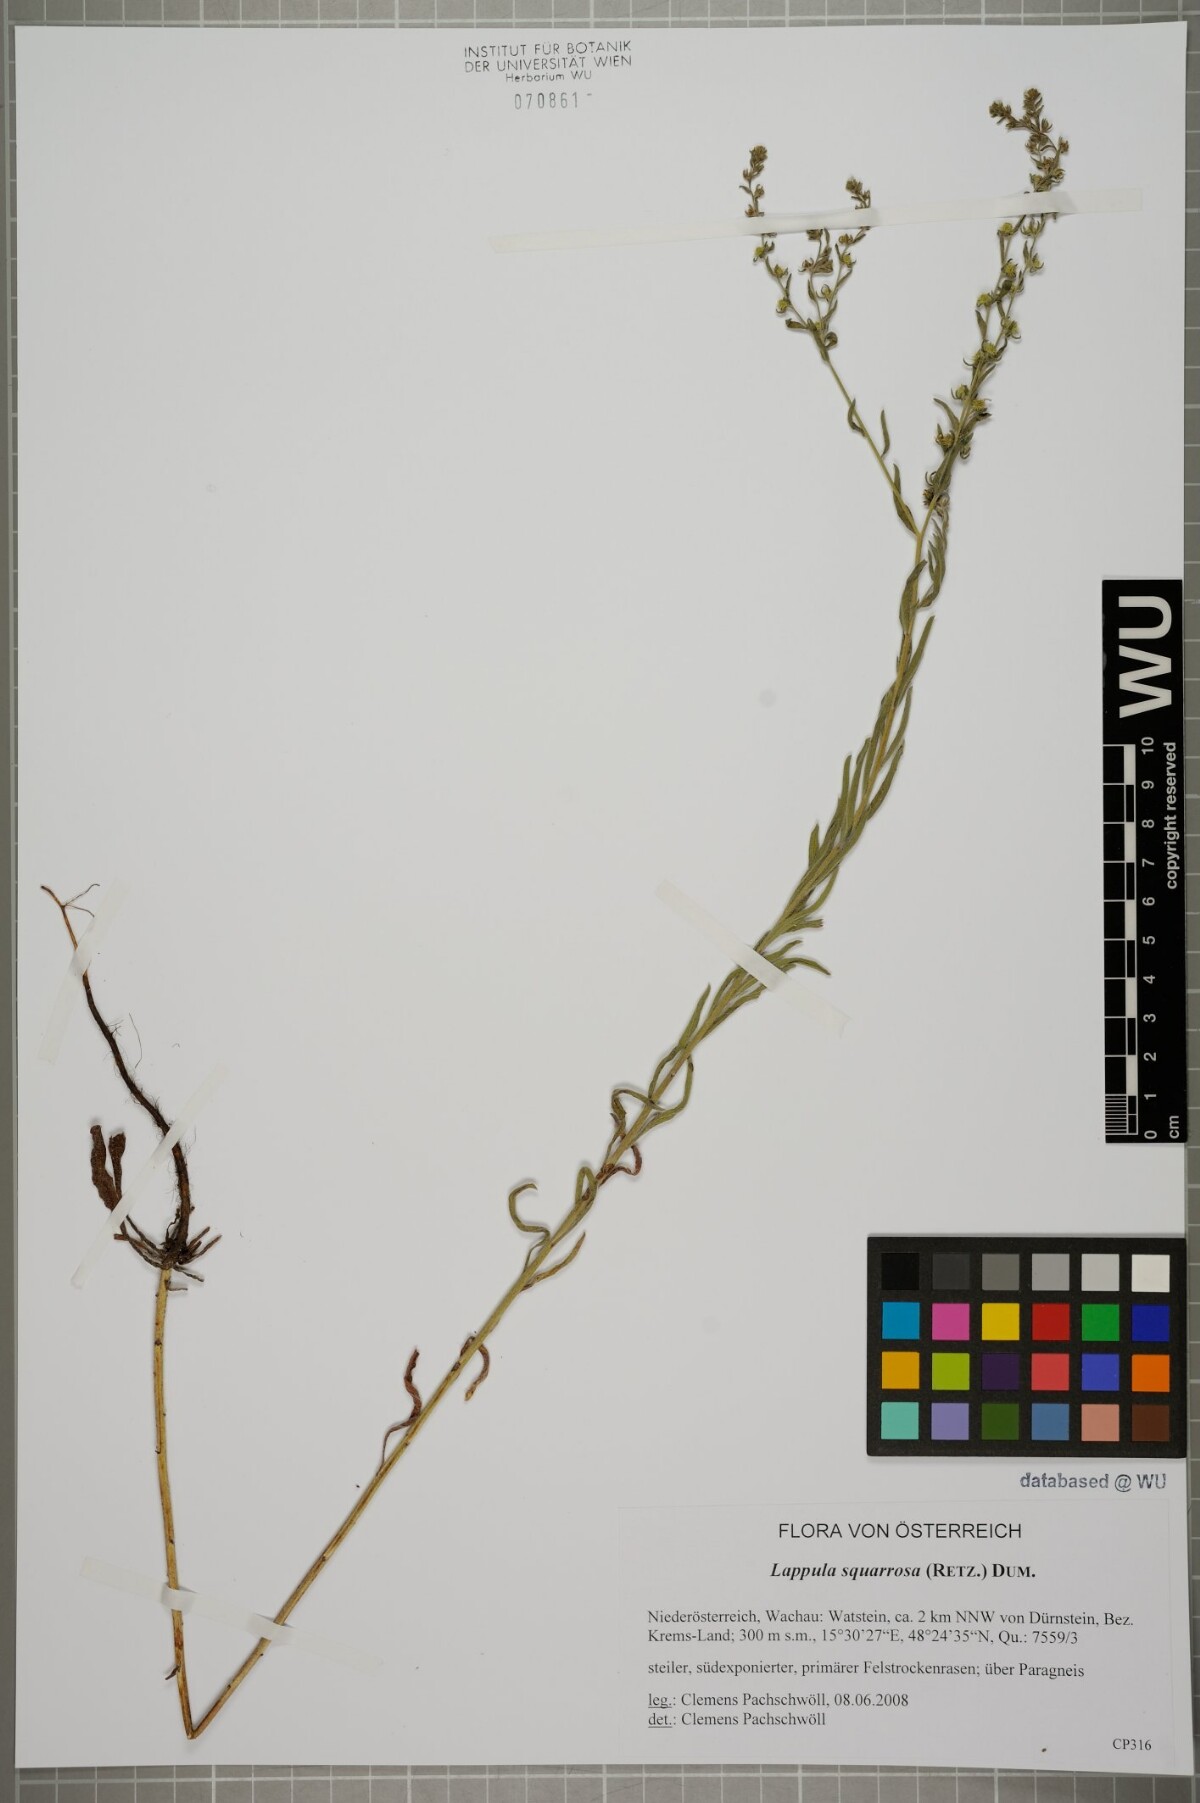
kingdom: Plantae
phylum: Tracheophyta
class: Magnoliopsida
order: Boraginales
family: Boraginaceae
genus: Lappula
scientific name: Lappula squarrosa
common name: European stickseed
